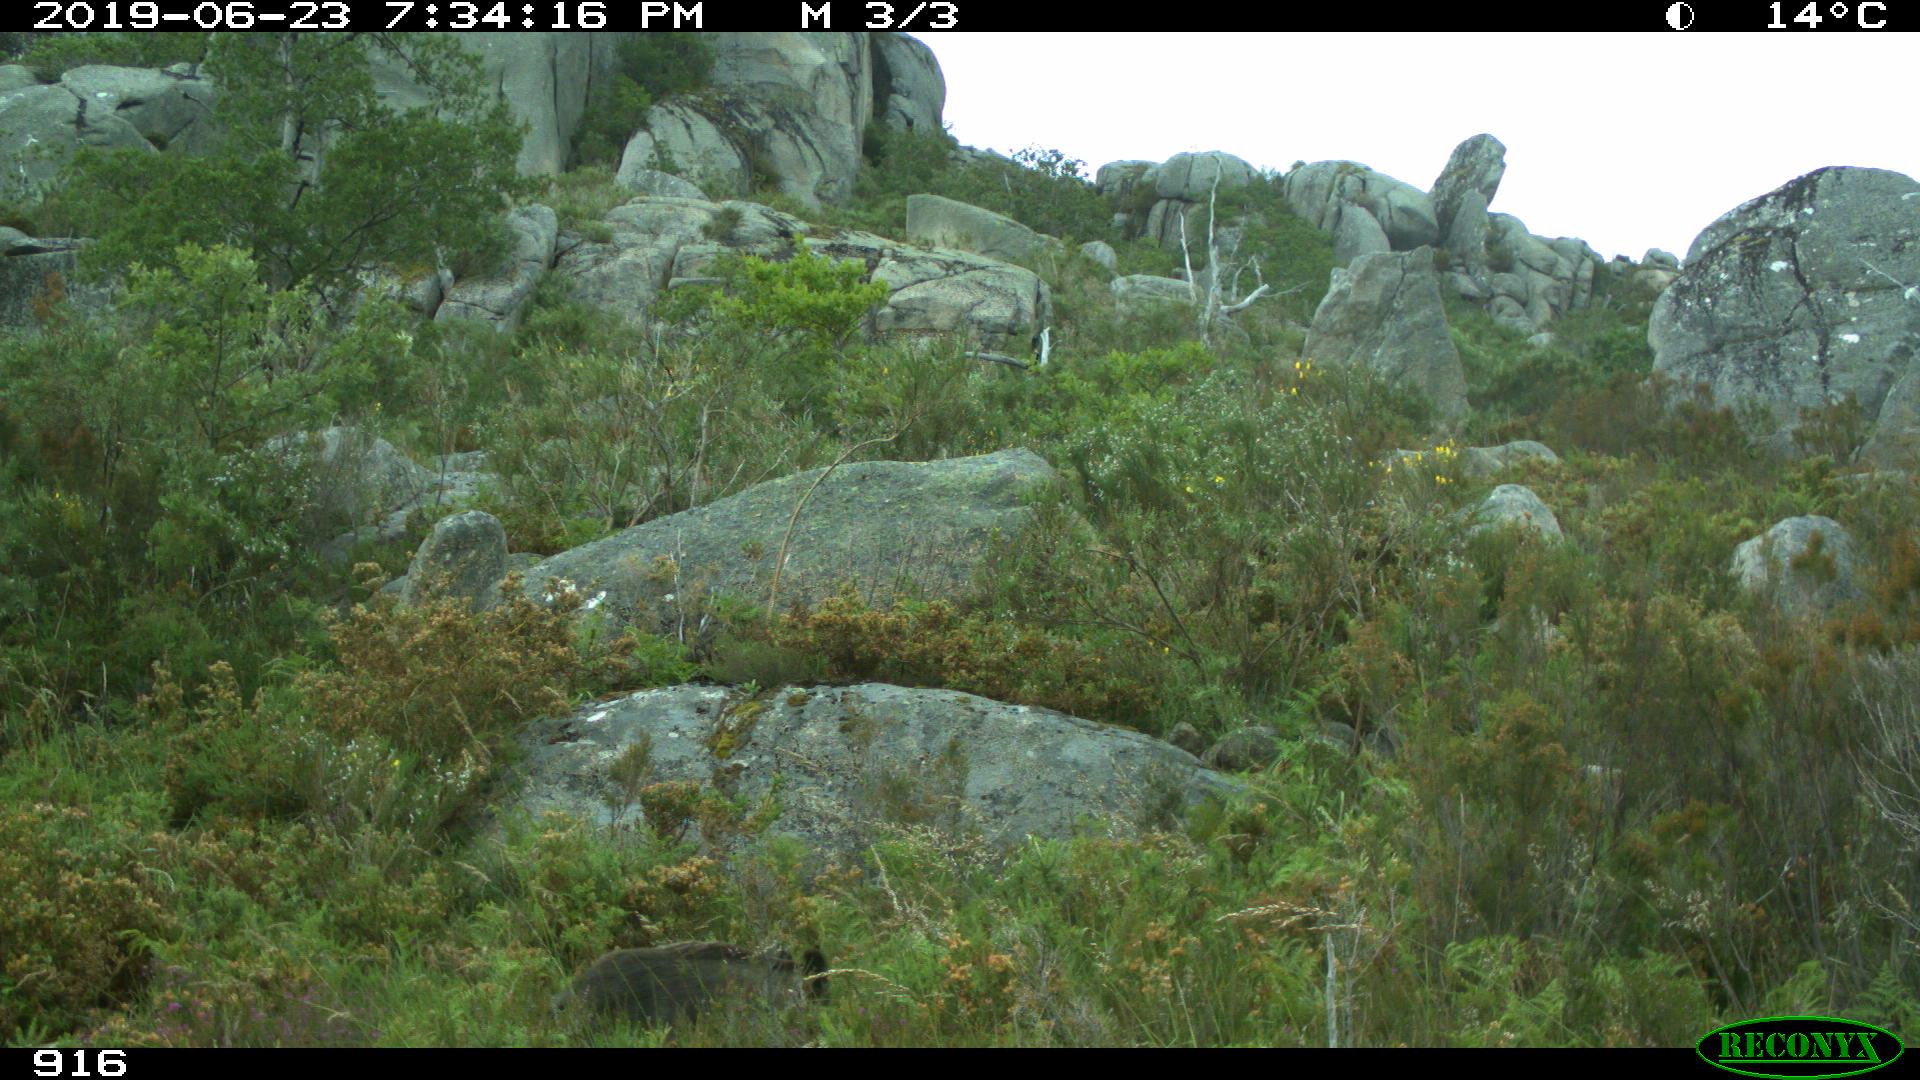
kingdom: Animalia
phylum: Chordata
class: Mammalia
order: Artiodactyla
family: Suidae
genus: Sus
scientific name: Sus scrofa
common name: Wild boar
